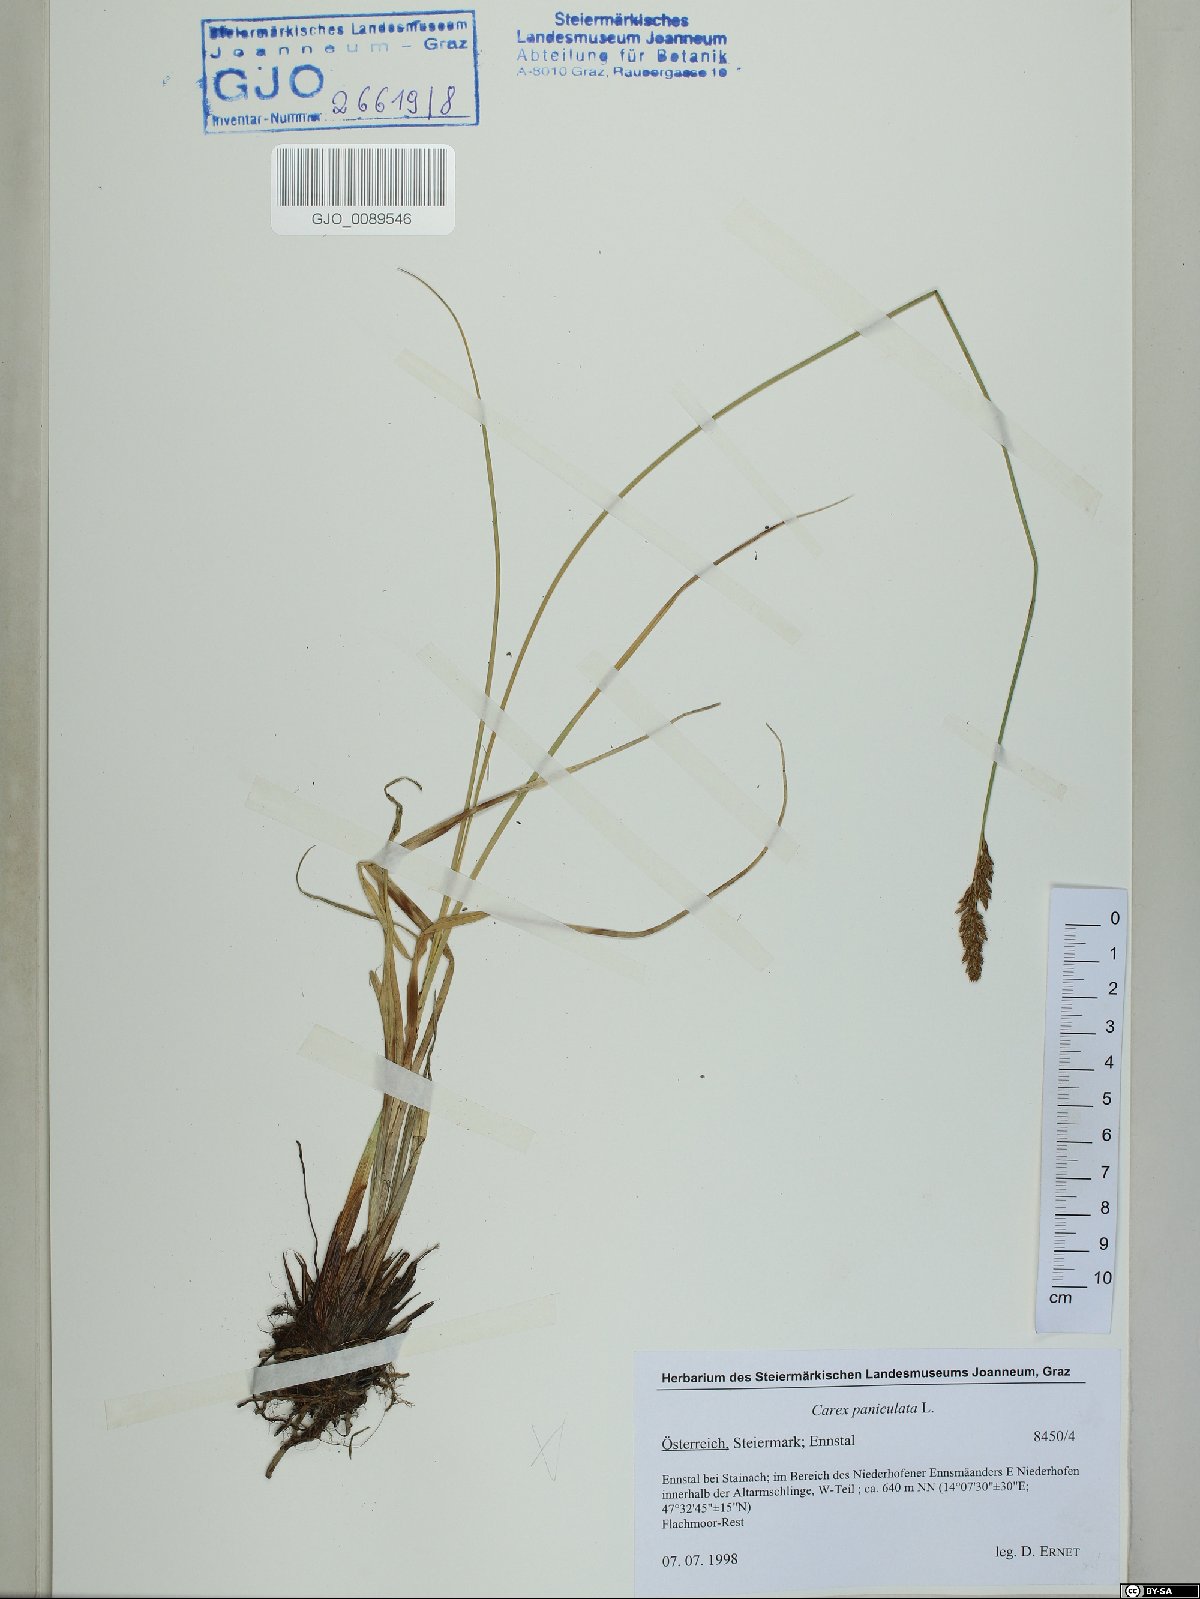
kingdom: Plantae
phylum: Tracheophyta
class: Liliopsida
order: Poales
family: Cyperaceae
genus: Carex
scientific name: Carex paniculata
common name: Greater tussock-sedge
